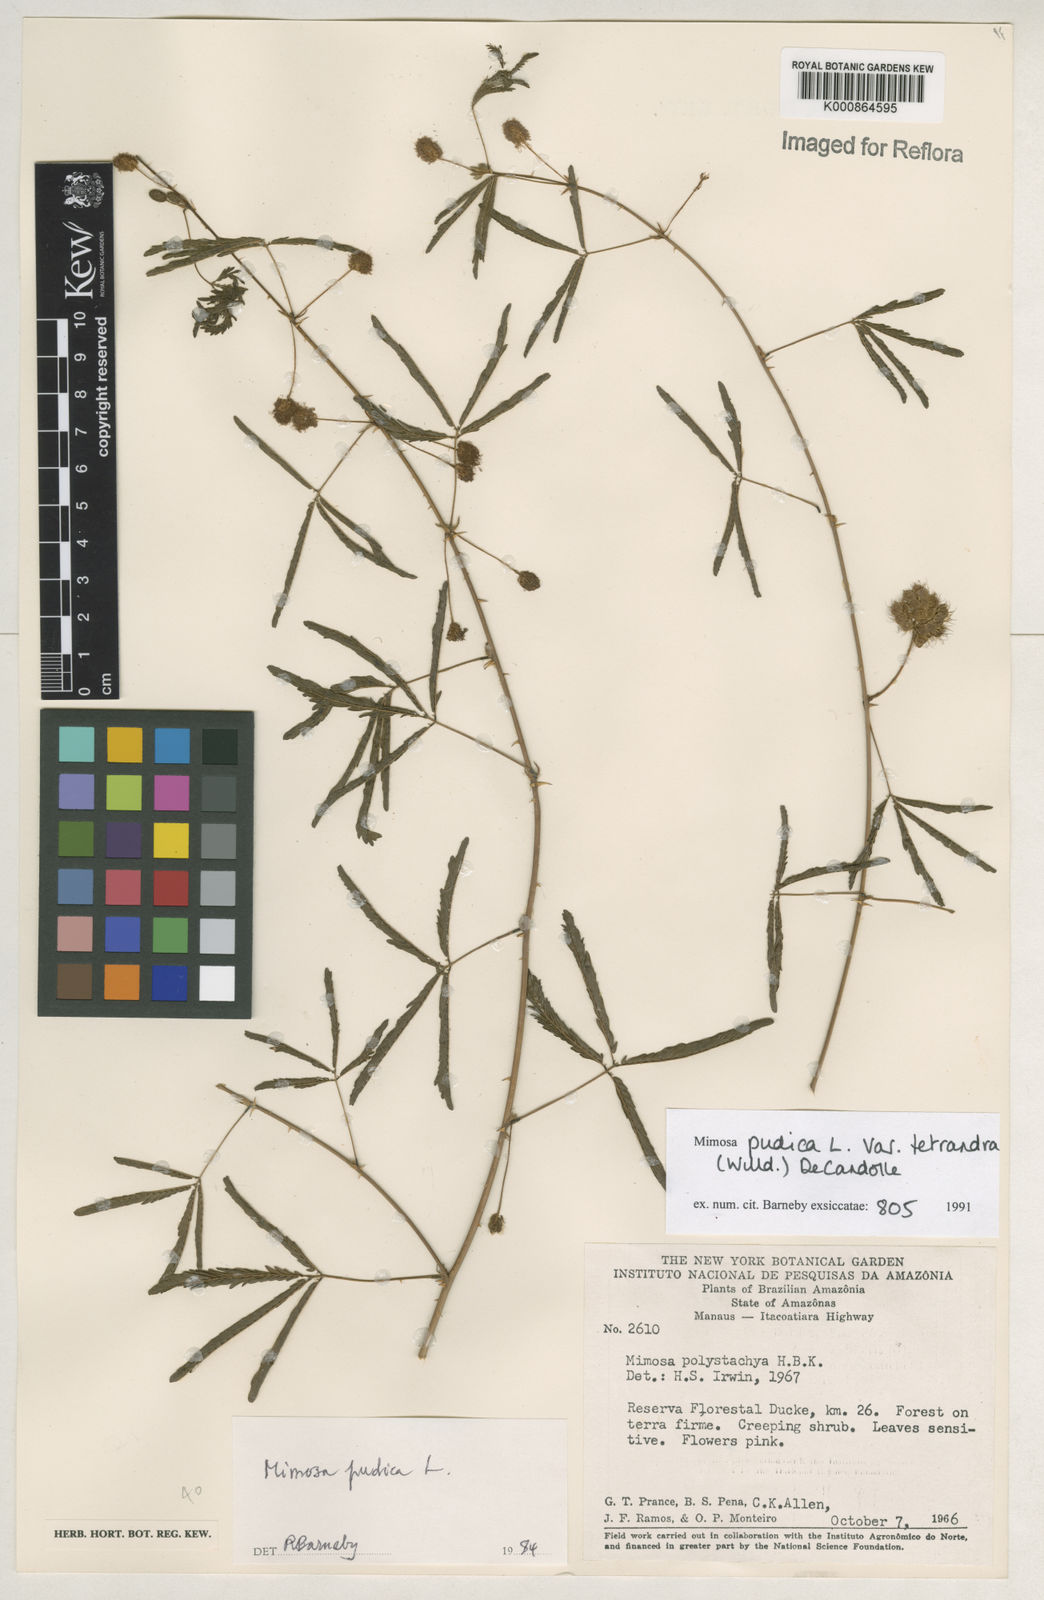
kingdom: Plantae
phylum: Tracheophyta
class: Magnoliopsida
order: Fabales
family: Fabaceae
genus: Mimosa
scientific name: Mimosa pudica
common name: Sensitive plant
